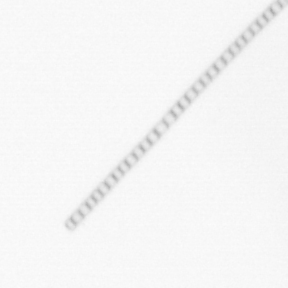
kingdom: Chromista
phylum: Ochrophyta
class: Bacillariophyceae
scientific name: Bacillariophyceae
